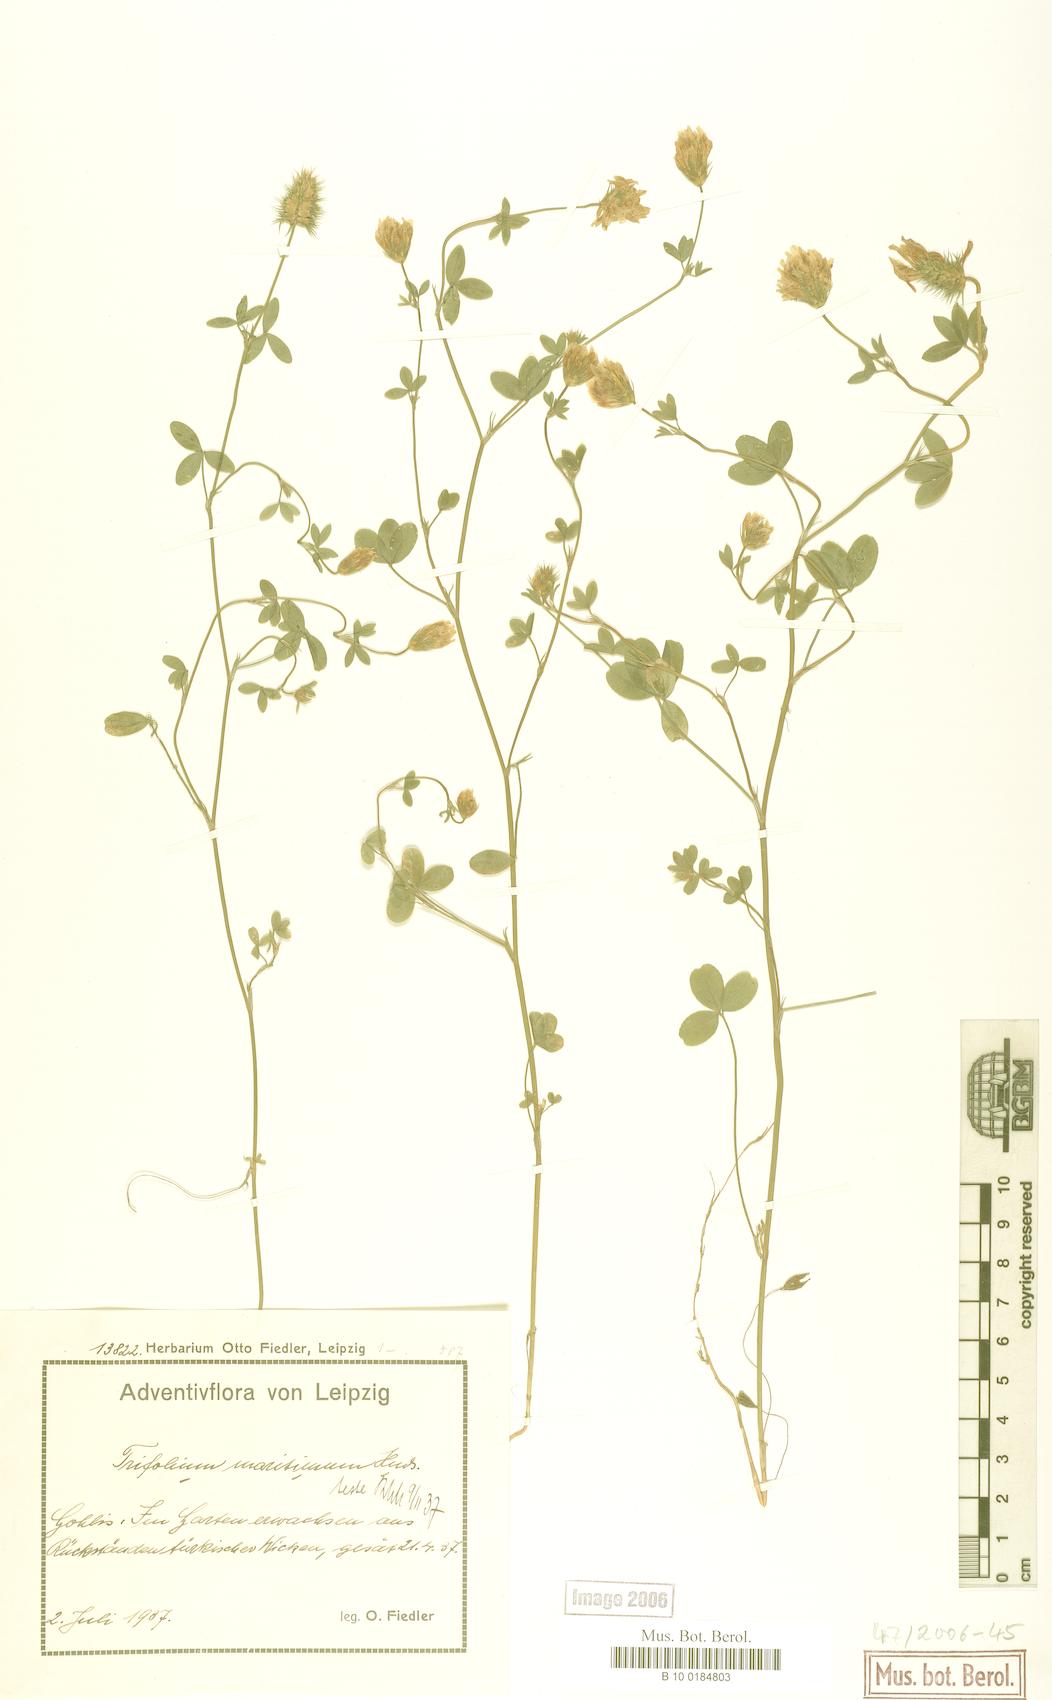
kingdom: Plantae
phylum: Tracheophyta
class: Magnoliopsida
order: Fabales
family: Fabaceae
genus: Trifolium
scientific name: Trifolium squamosum
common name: Sea clover
